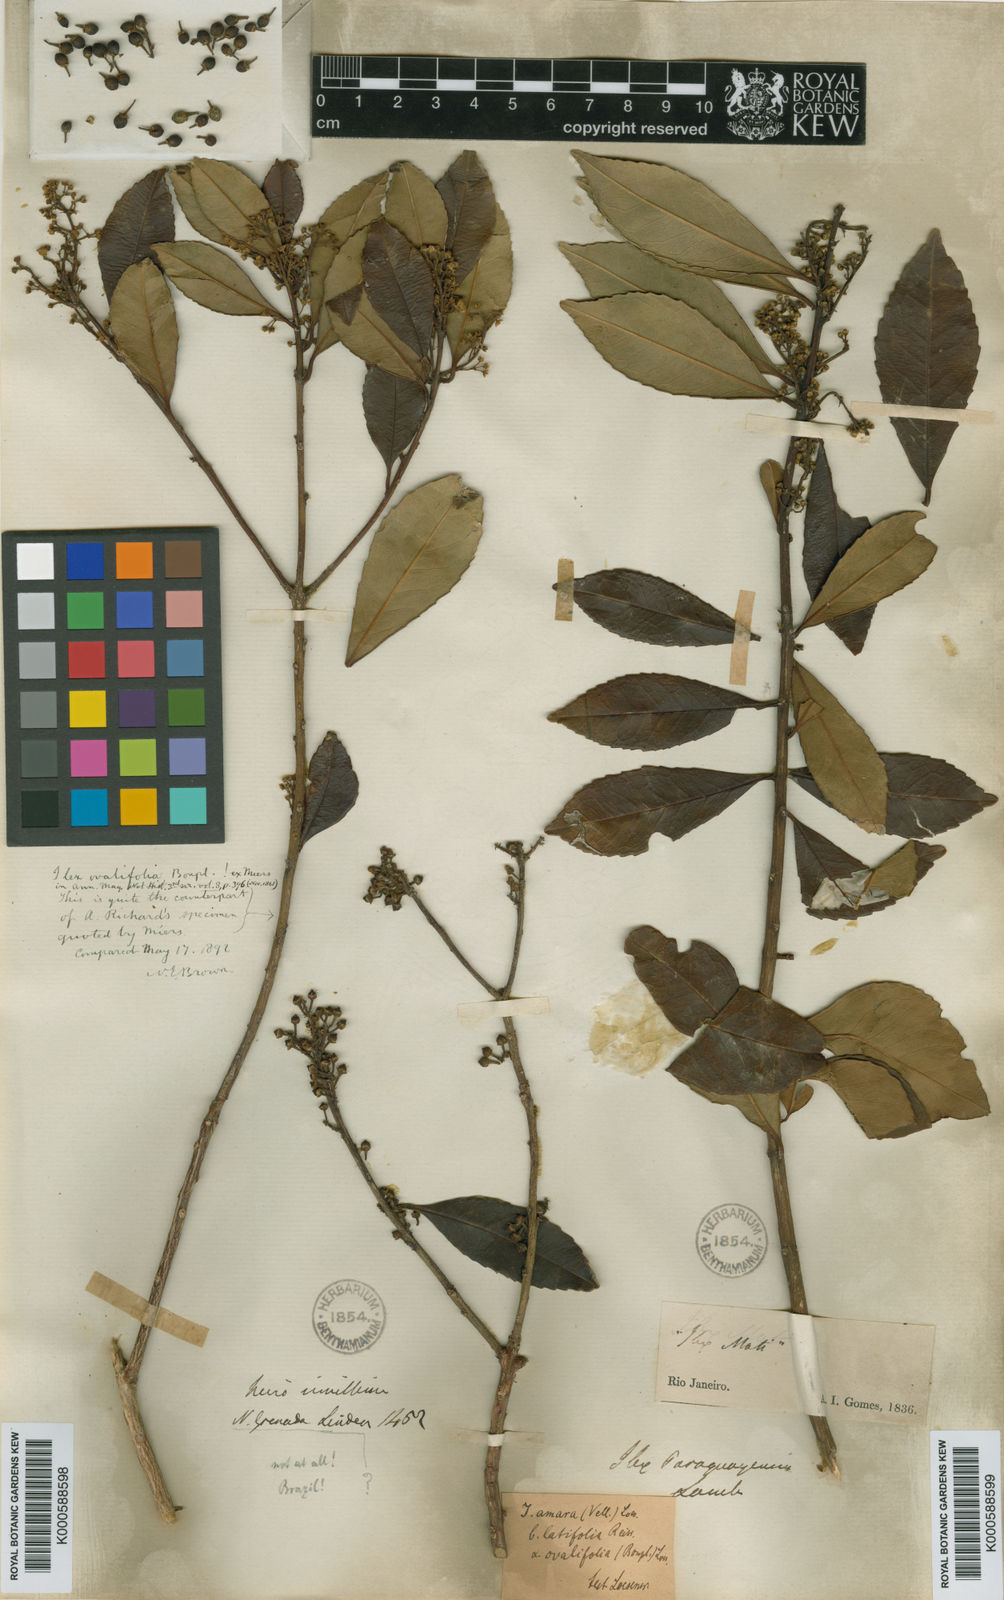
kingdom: Plantae
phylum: Tracheophyta
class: Magnoliopsida
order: Aquifoliales
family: Aquifoliaceae
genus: Ilex
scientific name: Ilex dumosa
